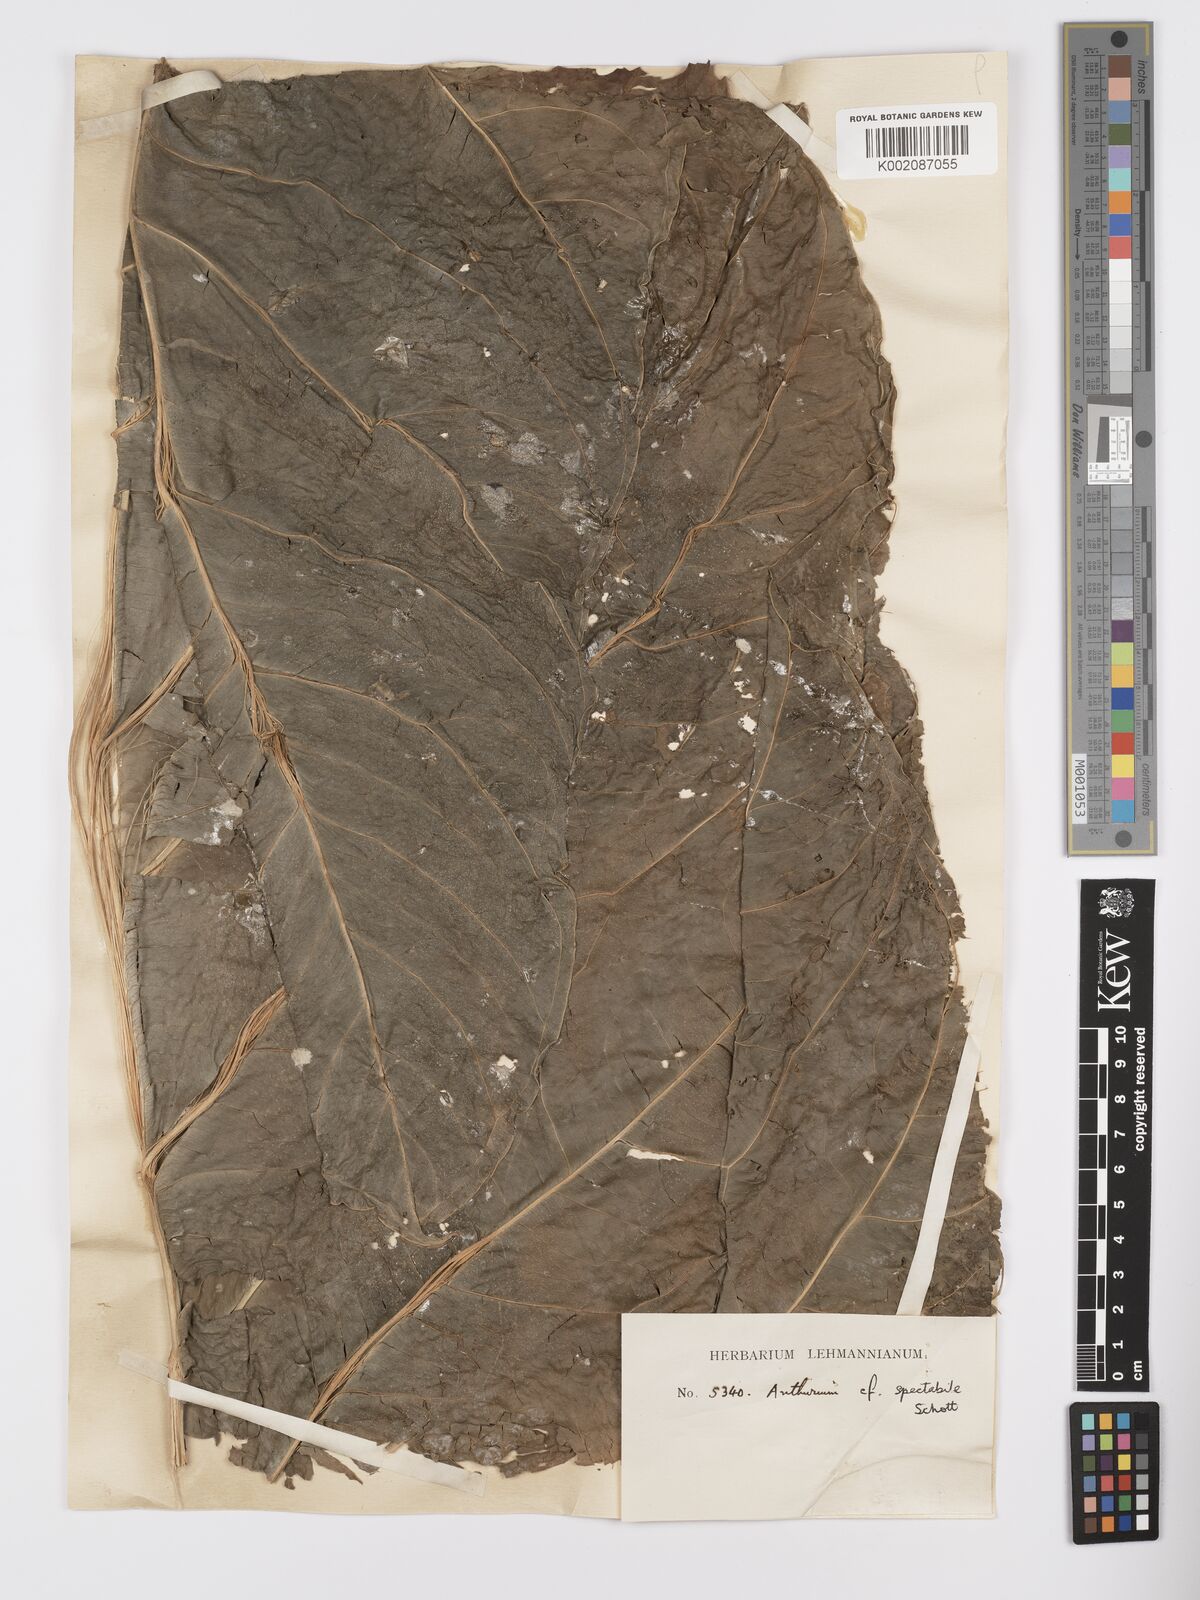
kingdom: Plantae
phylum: Tracheophyta
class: Liliopsida
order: Alismatales
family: Araceae
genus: Anthurium
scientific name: Anthurium spectabile
